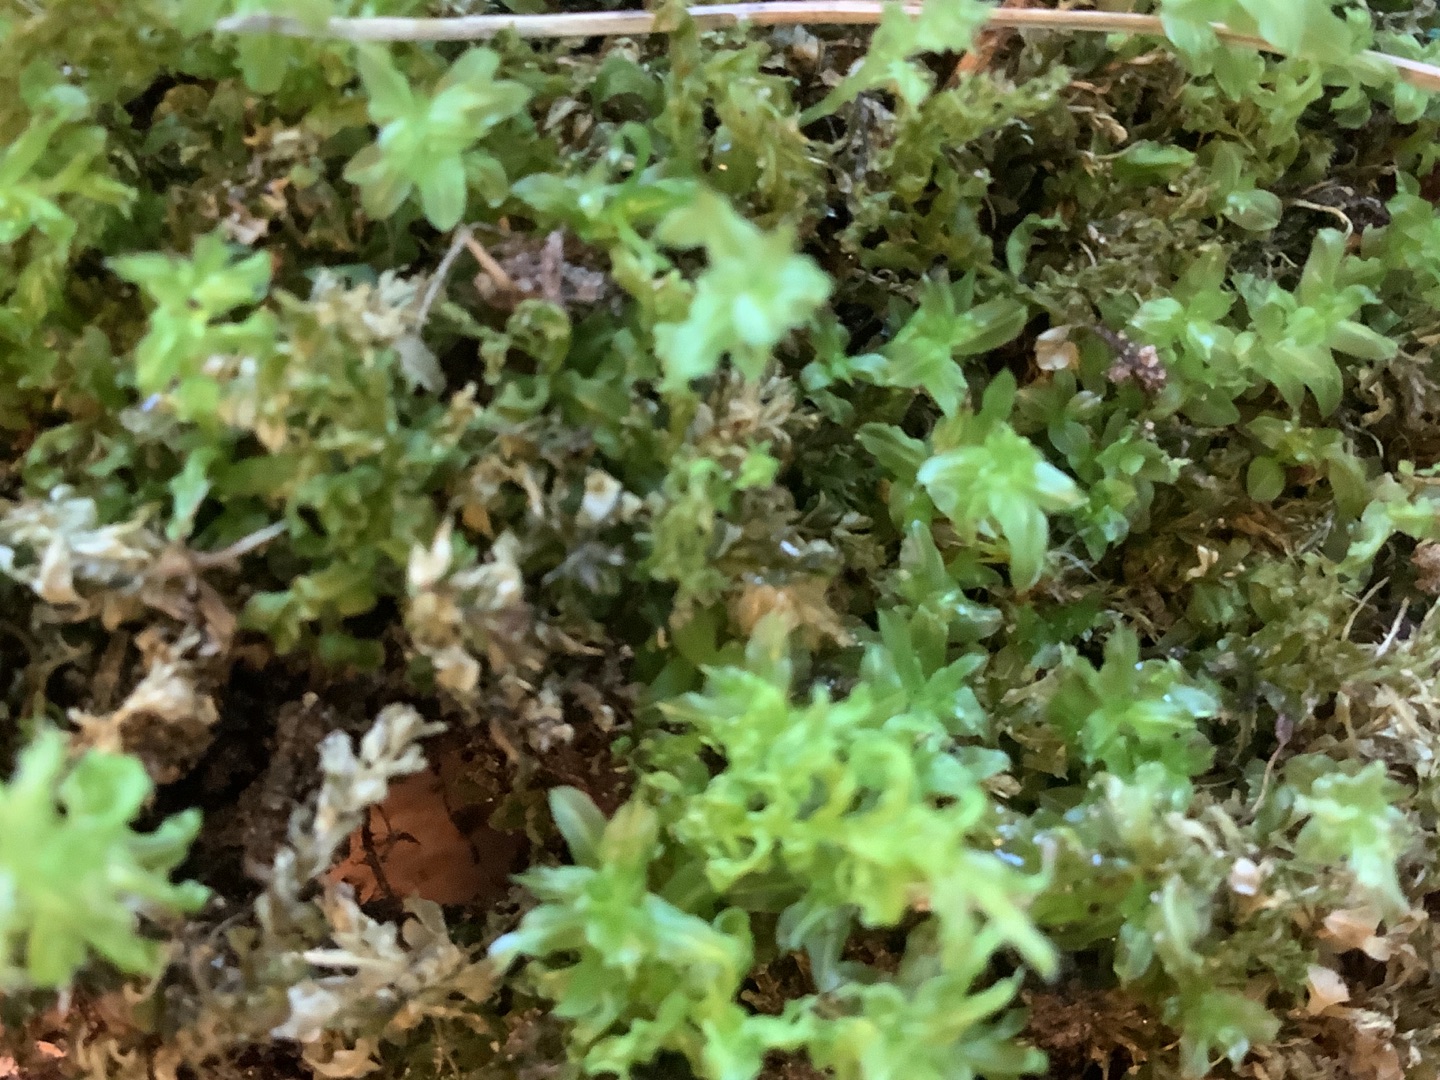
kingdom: Plantae
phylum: Bryophyta
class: Bryopsida
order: Bryales
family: Mniaceae
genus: Plagiomnium
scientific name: Plagiomnium undulatum
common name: Bølget krybstjerne
